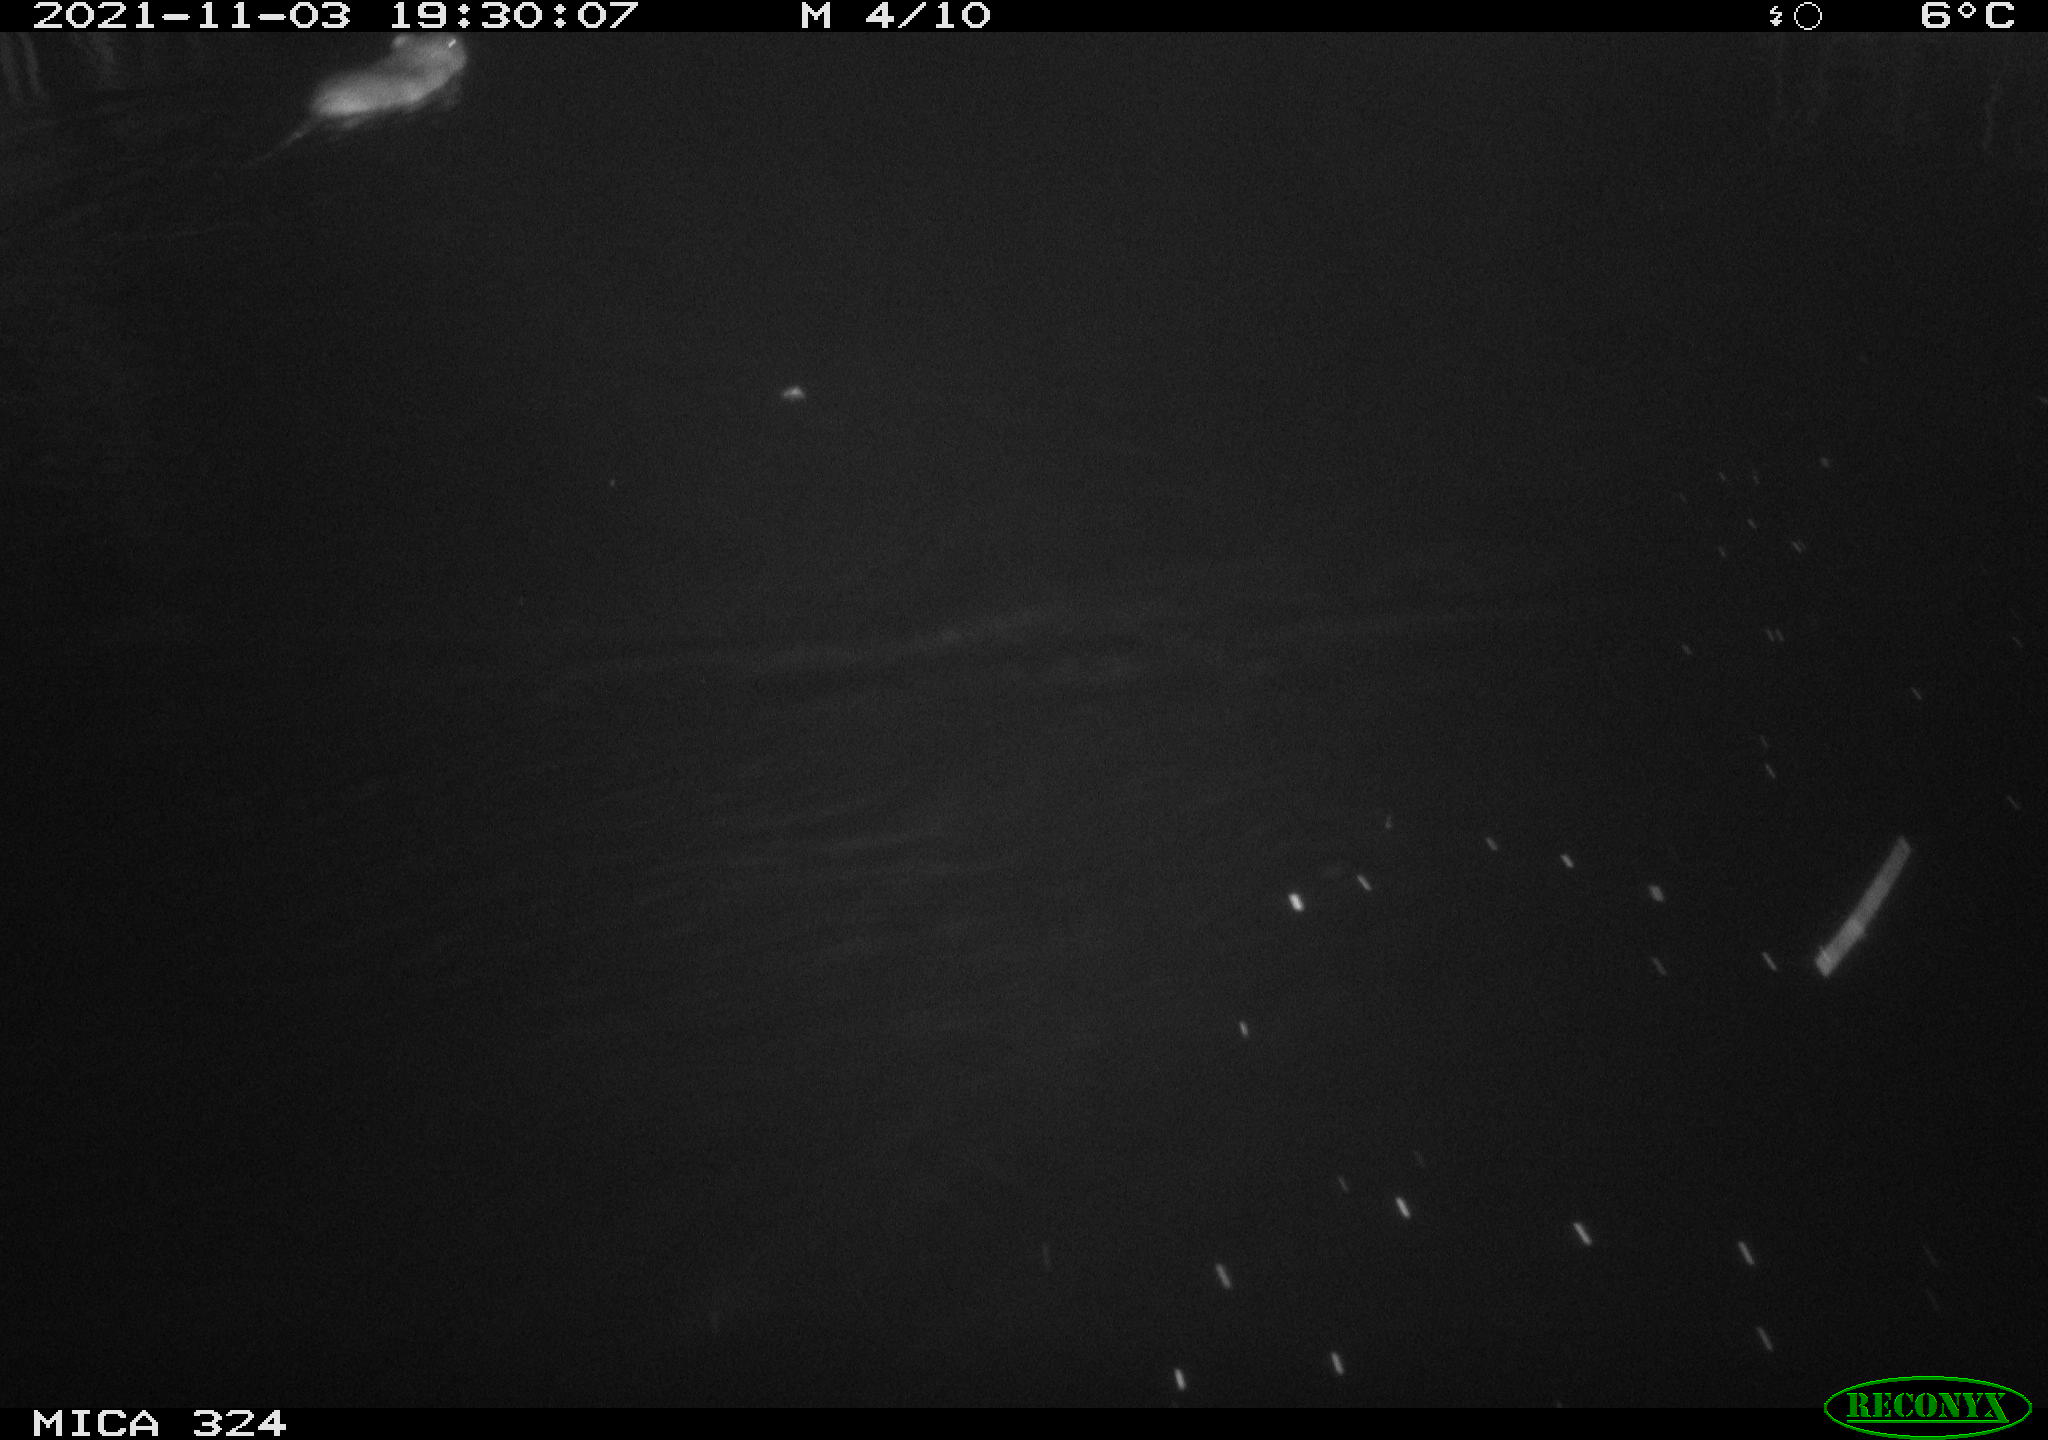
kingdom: Animalia
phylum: Chordata
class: Mammalia
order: Rodentia
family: Cricetidae
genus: Ondatra
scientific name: Ondatra zibethicus
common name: Muskrat
